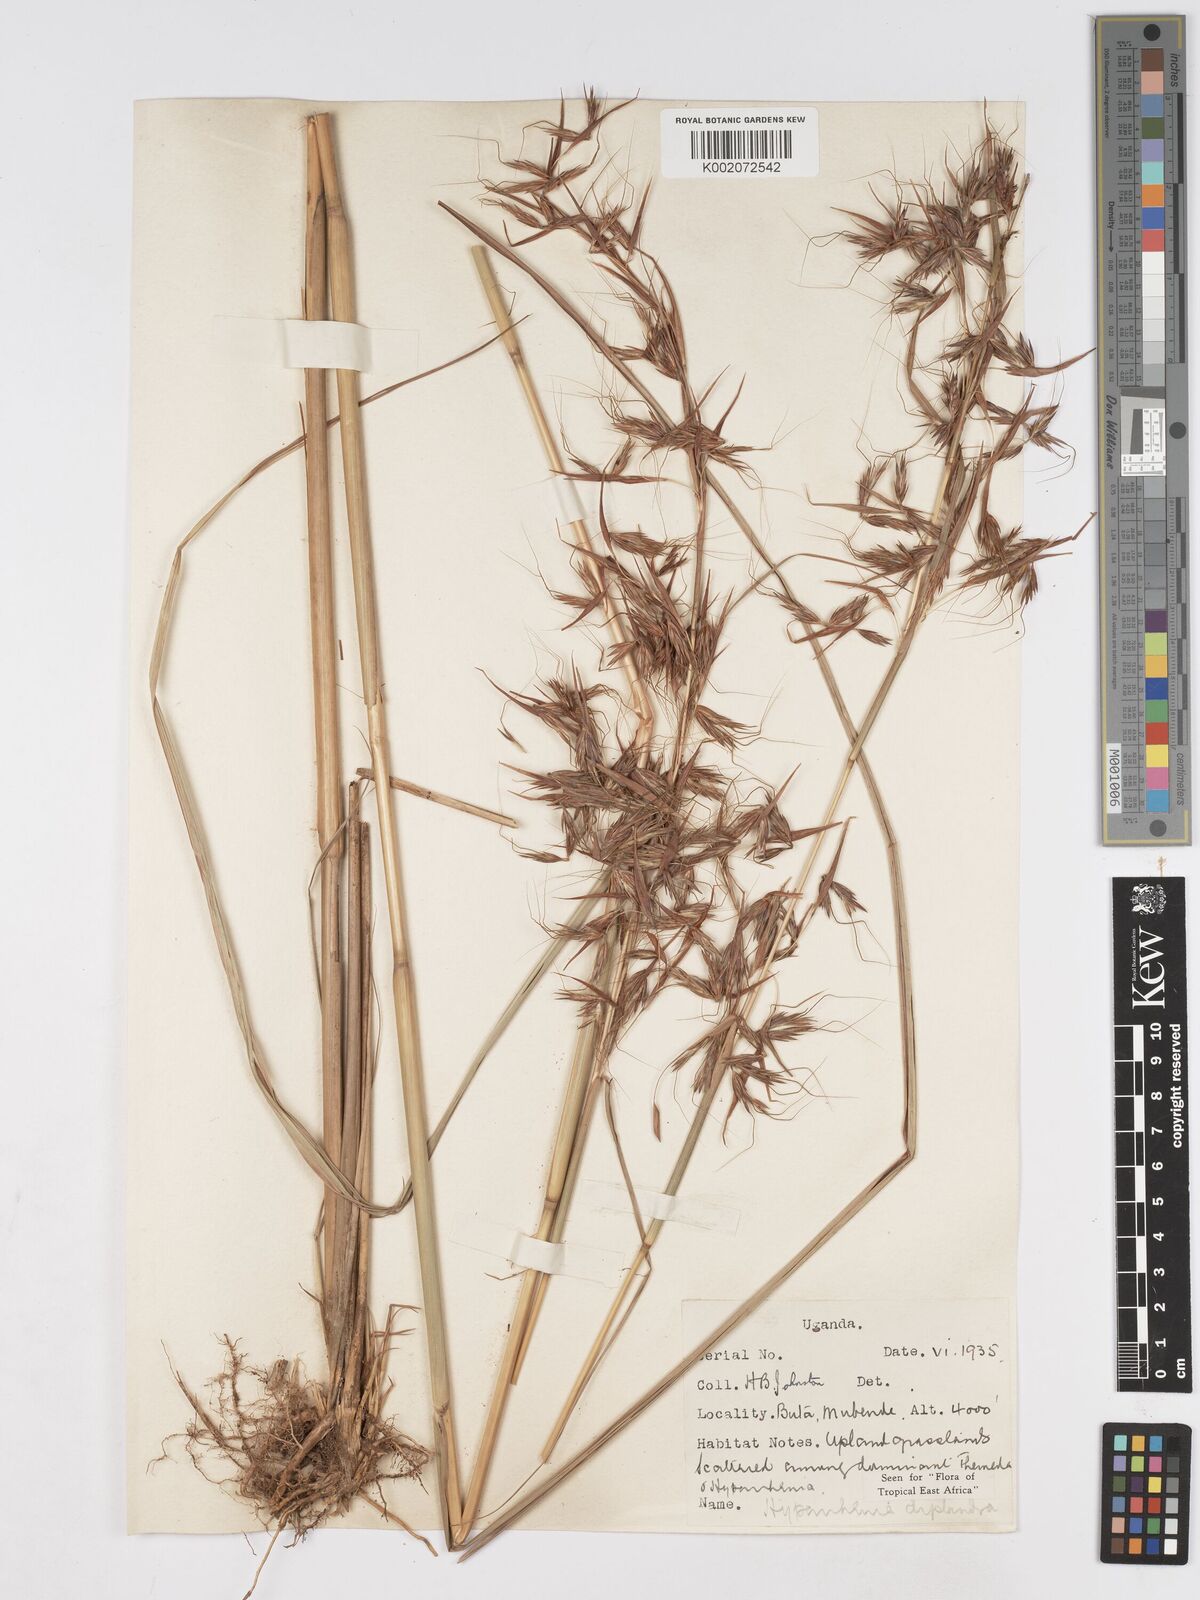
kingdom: Plantae
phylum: Tracheophyta
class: Liliopsida
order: Poales
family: Poaceae
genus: Hyparrhenia
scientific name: Hyparrhenia diplandra
